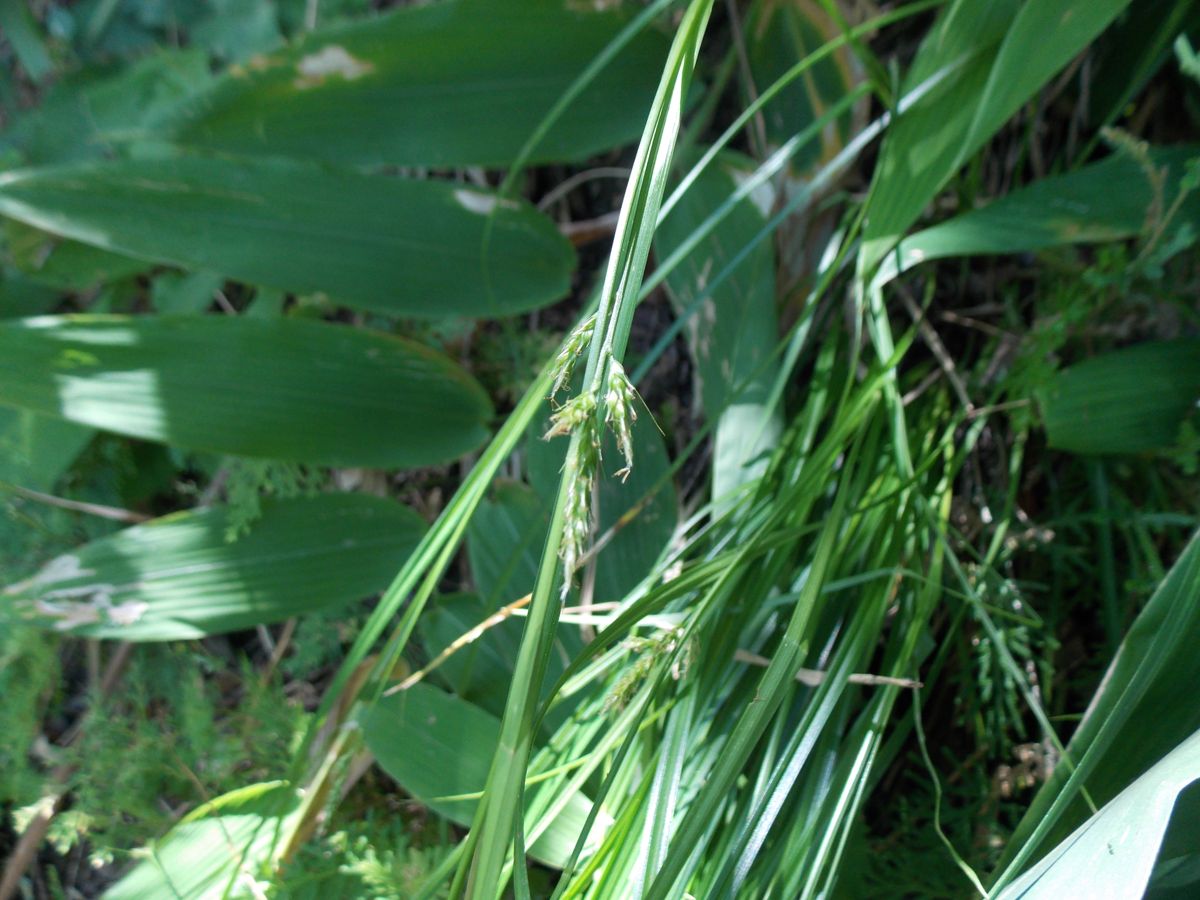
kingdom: Plantae
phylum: Tracheophyta
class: Liliopsida
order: Poales
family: Cyperaceae
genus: Carex
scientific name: Carex polystachya
